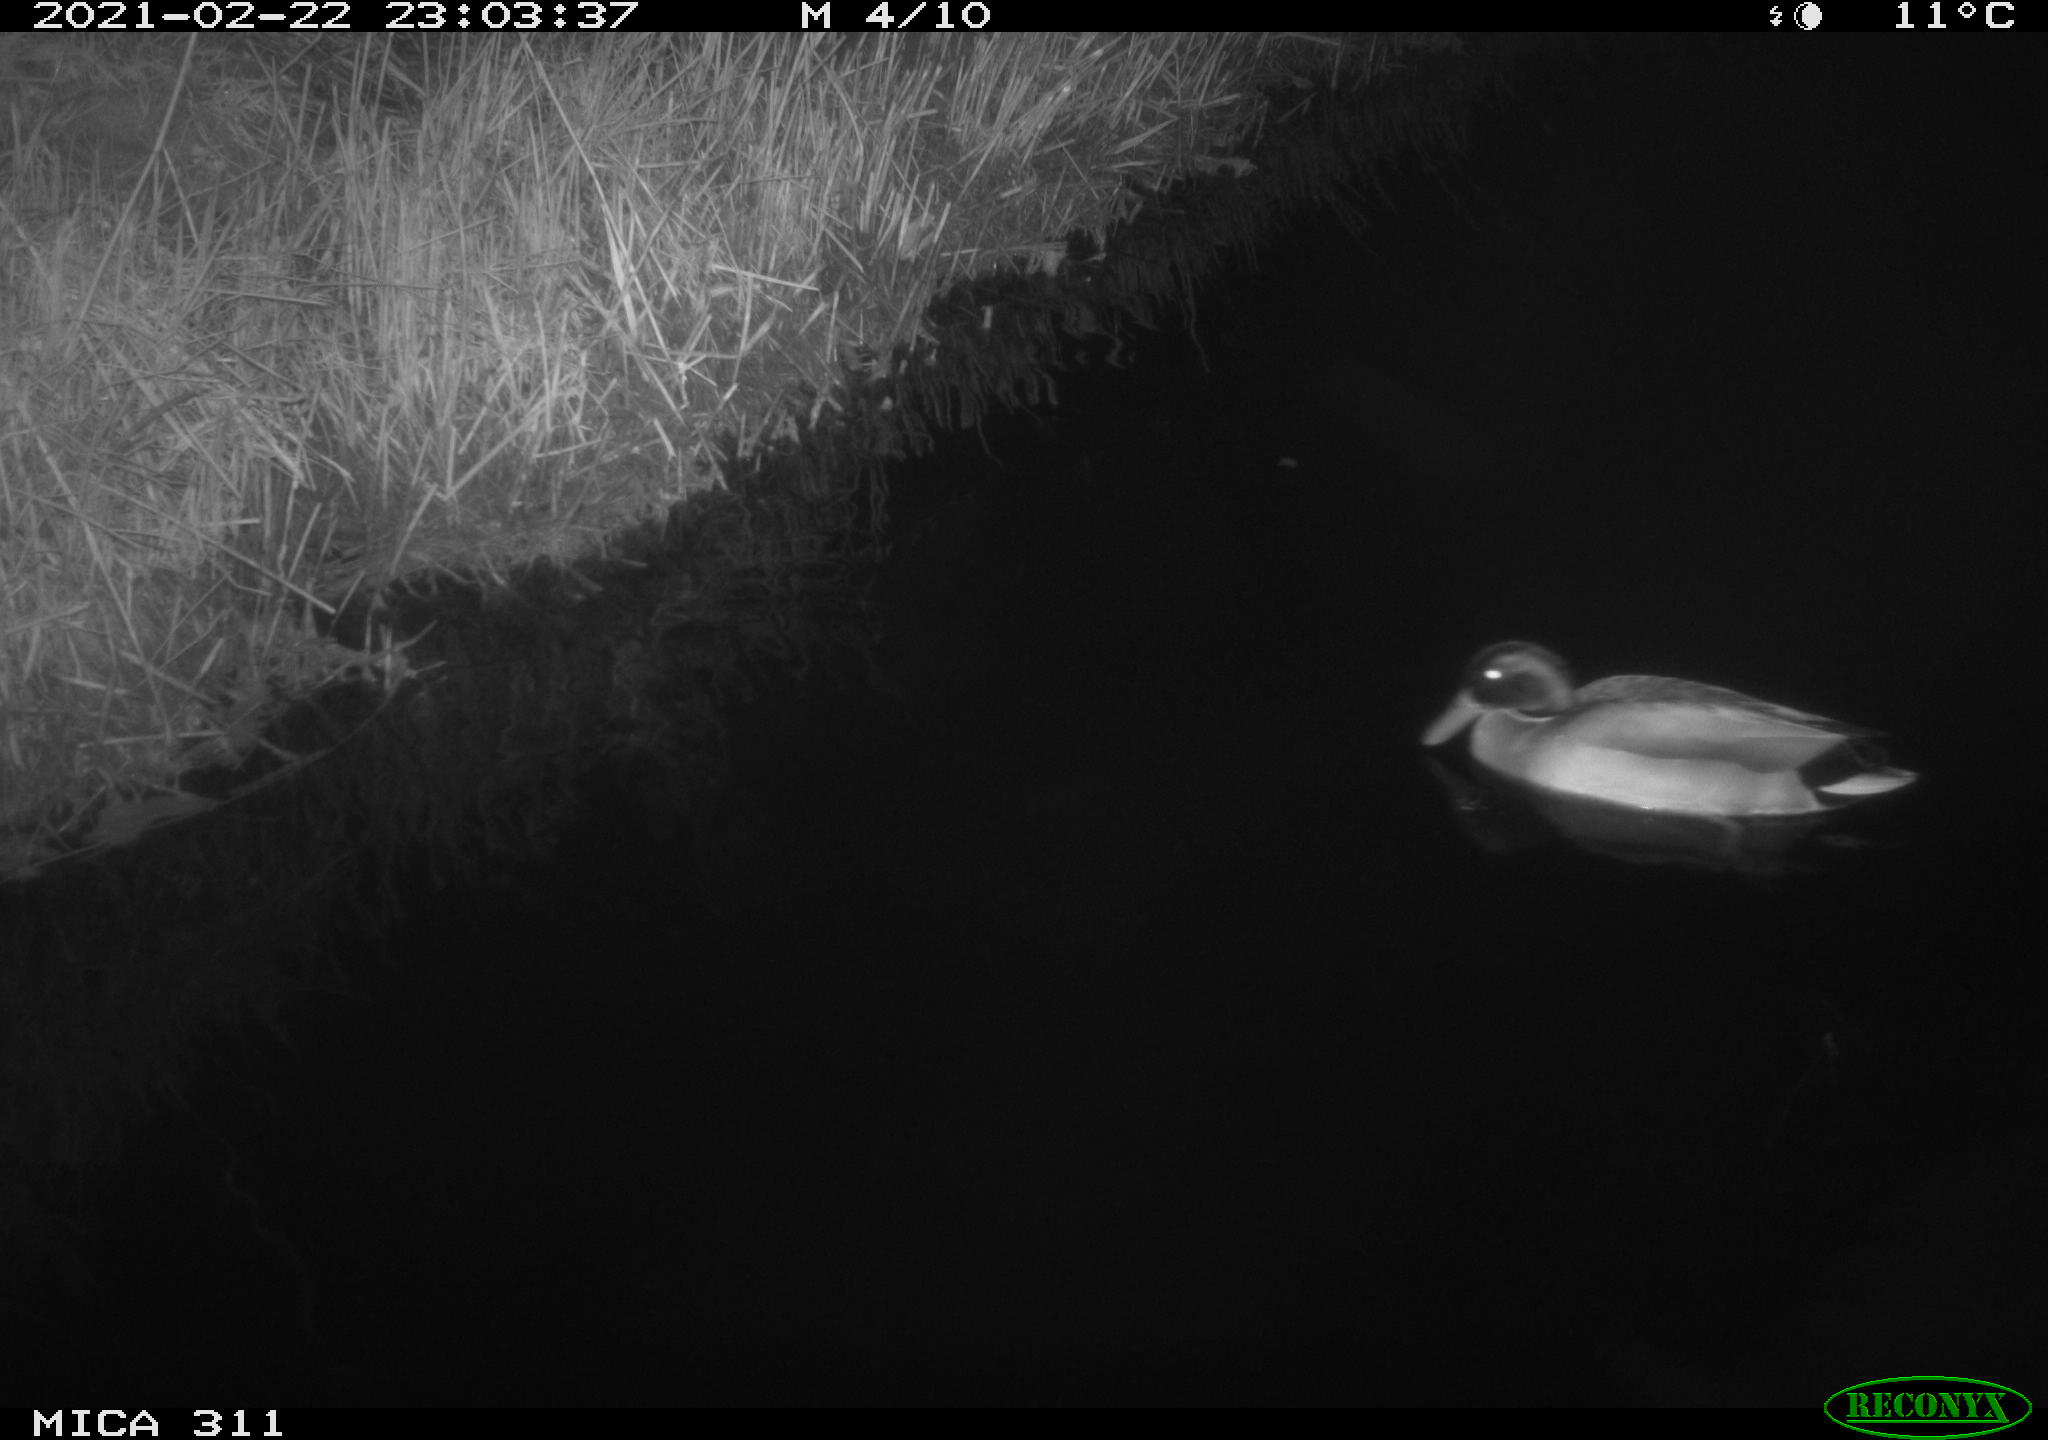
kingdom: Animalia
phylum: Chordata
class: Aves
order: Anseriformes
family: Anatidae
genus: Anas
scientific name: Anas
